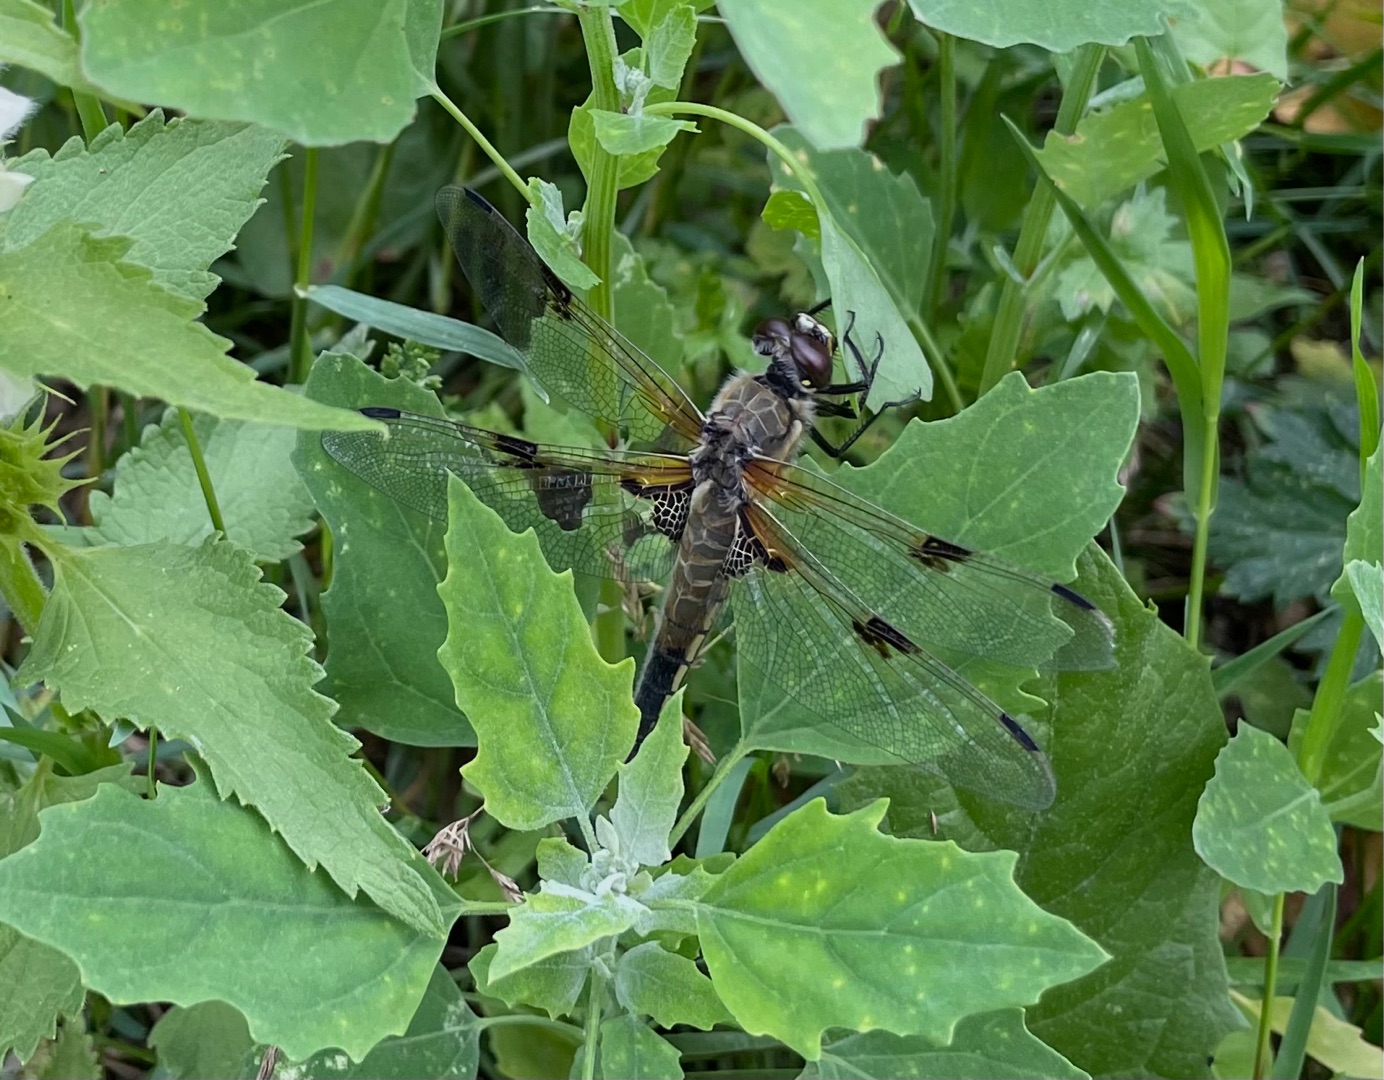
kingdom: Animalia
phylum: Arthropoda
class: Insecta
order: Odonata
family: Libellulidae
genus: Libellula
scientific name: Libellula quadrimaculata
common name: Fireplettet libel
